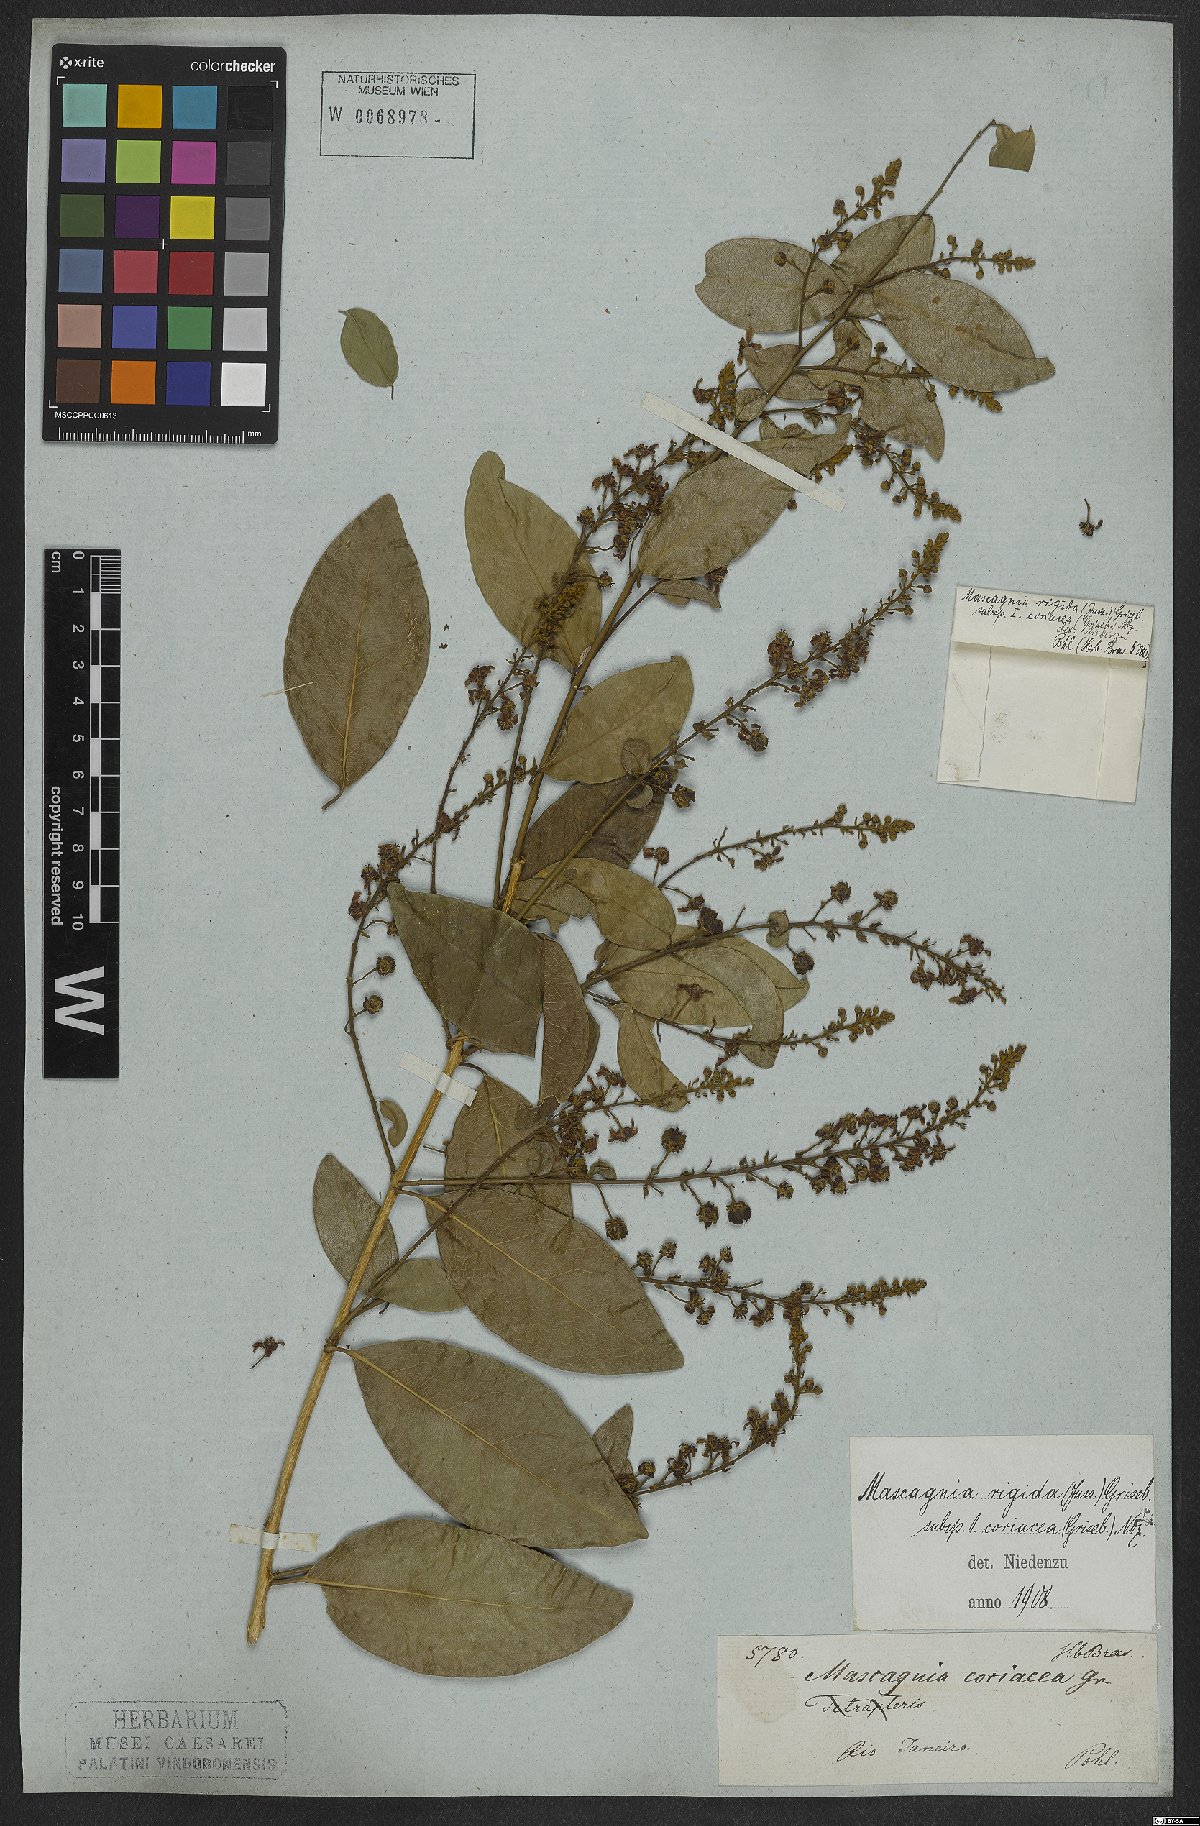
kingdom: Plantae
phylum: Tracheophyta
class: Magnoliopsida
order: Malpighiales
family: Malpighiaceae
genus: Amorimia
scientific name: Amorimia coriacea
